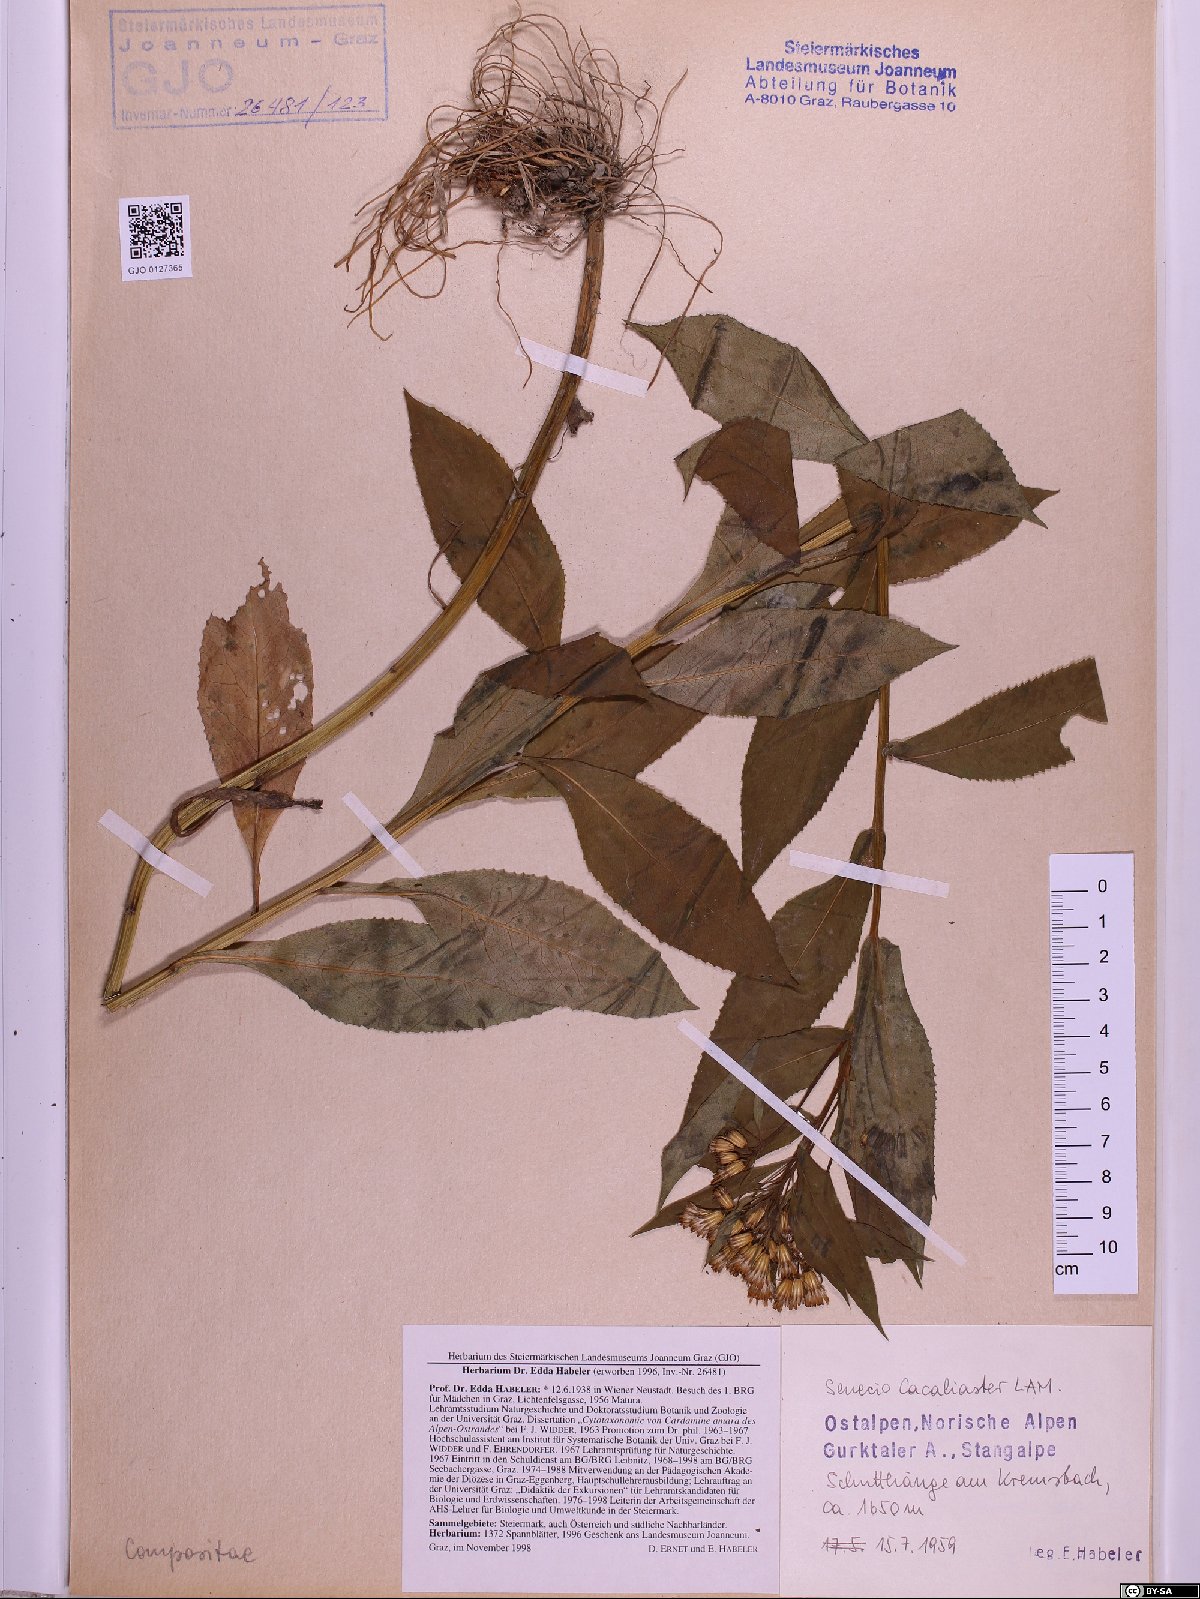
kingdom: Plantae
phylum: Tracheophyta
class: Magnoliopsida
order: Asterales
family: Asteraceae
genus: Senecio
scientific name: Senecio cacaliaster
